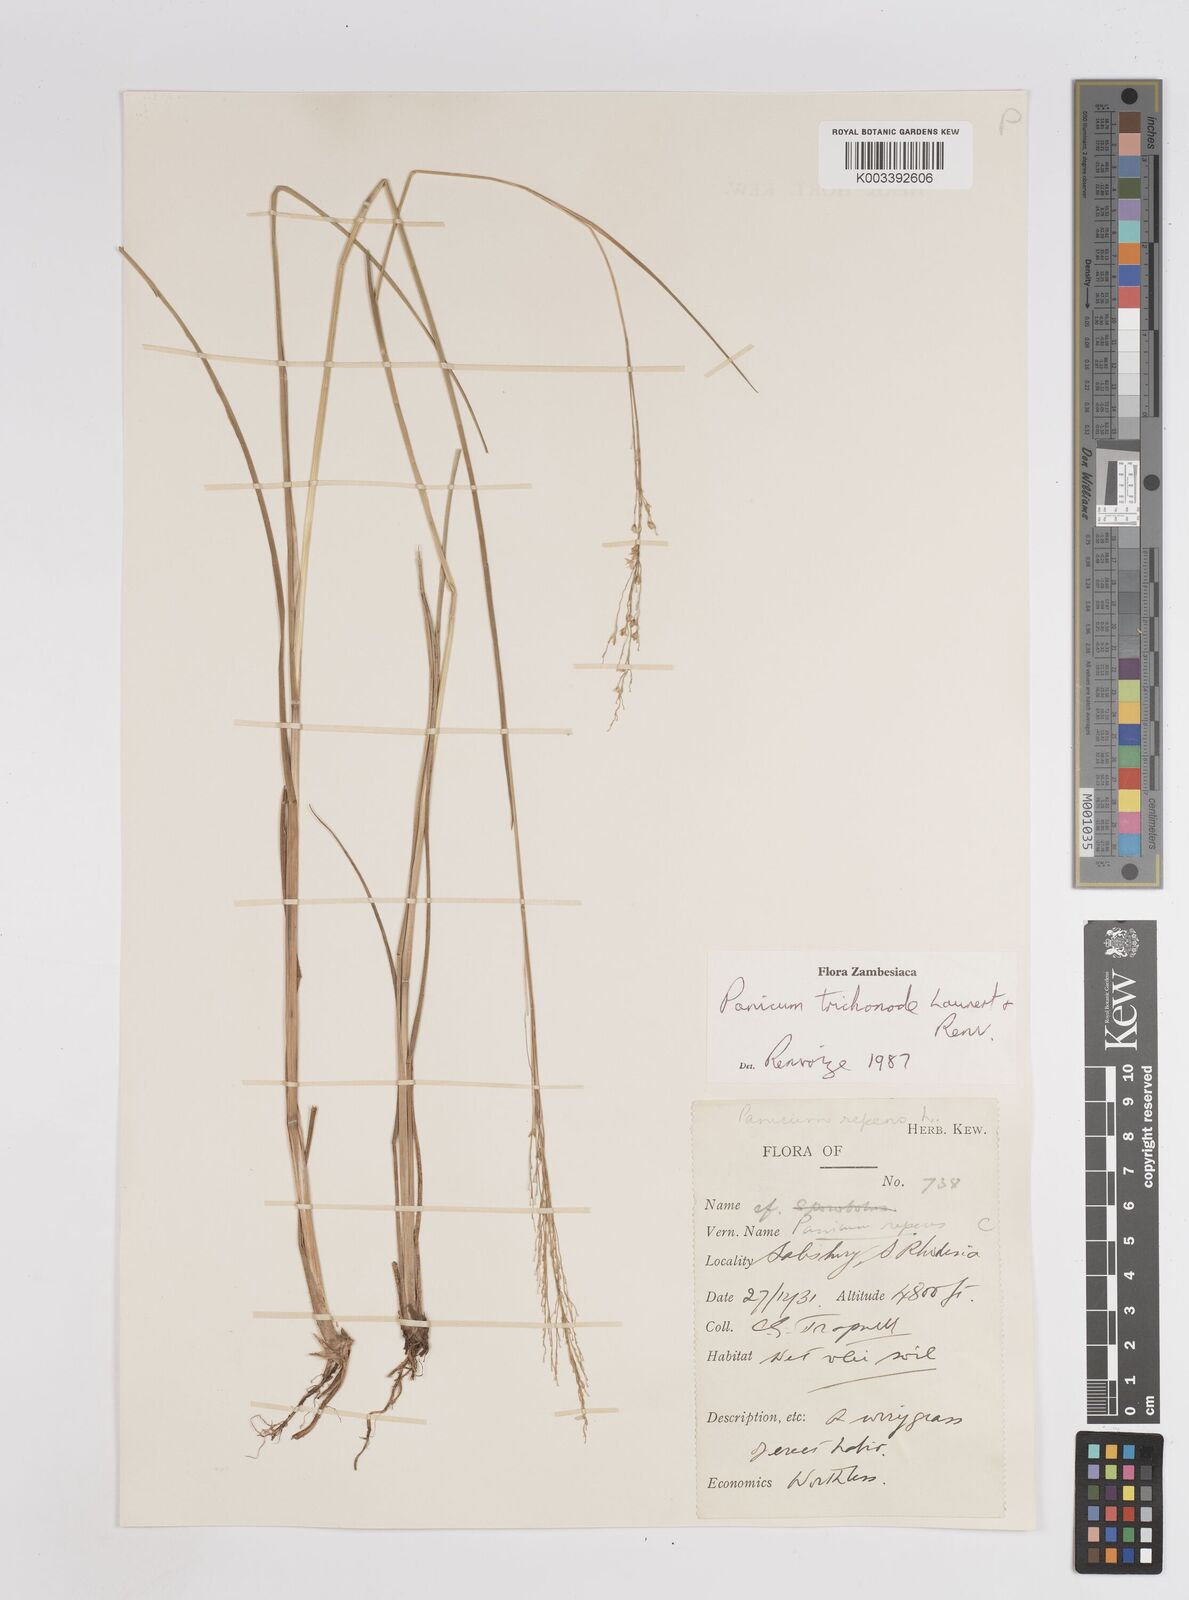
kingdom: Plantae
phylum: Tracheophyta
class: Liliopsida
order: Poales
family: Poaceae
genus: Panicum
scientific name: Panicum trichonode
